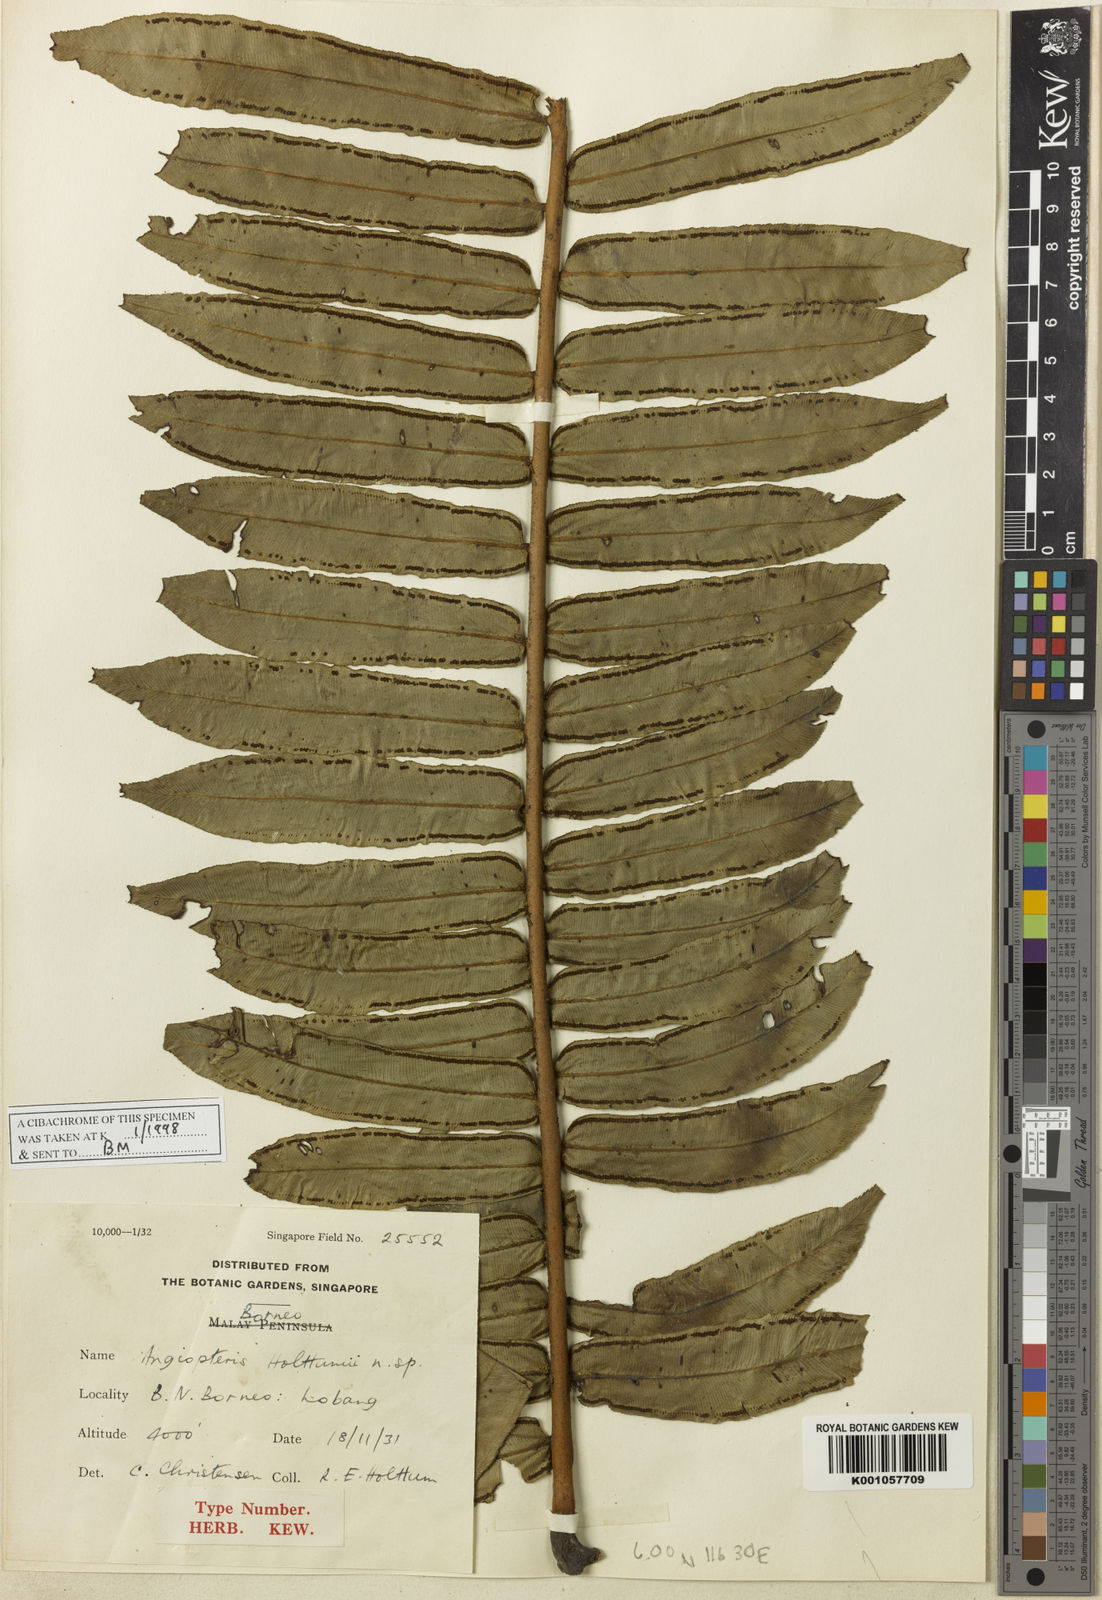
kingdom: Plantae
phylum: Tracheophyta
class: Polypodiopsida
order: Marattiales
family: Marattiaceae
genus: Angiopteris
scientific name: Angiopteris holttumii
